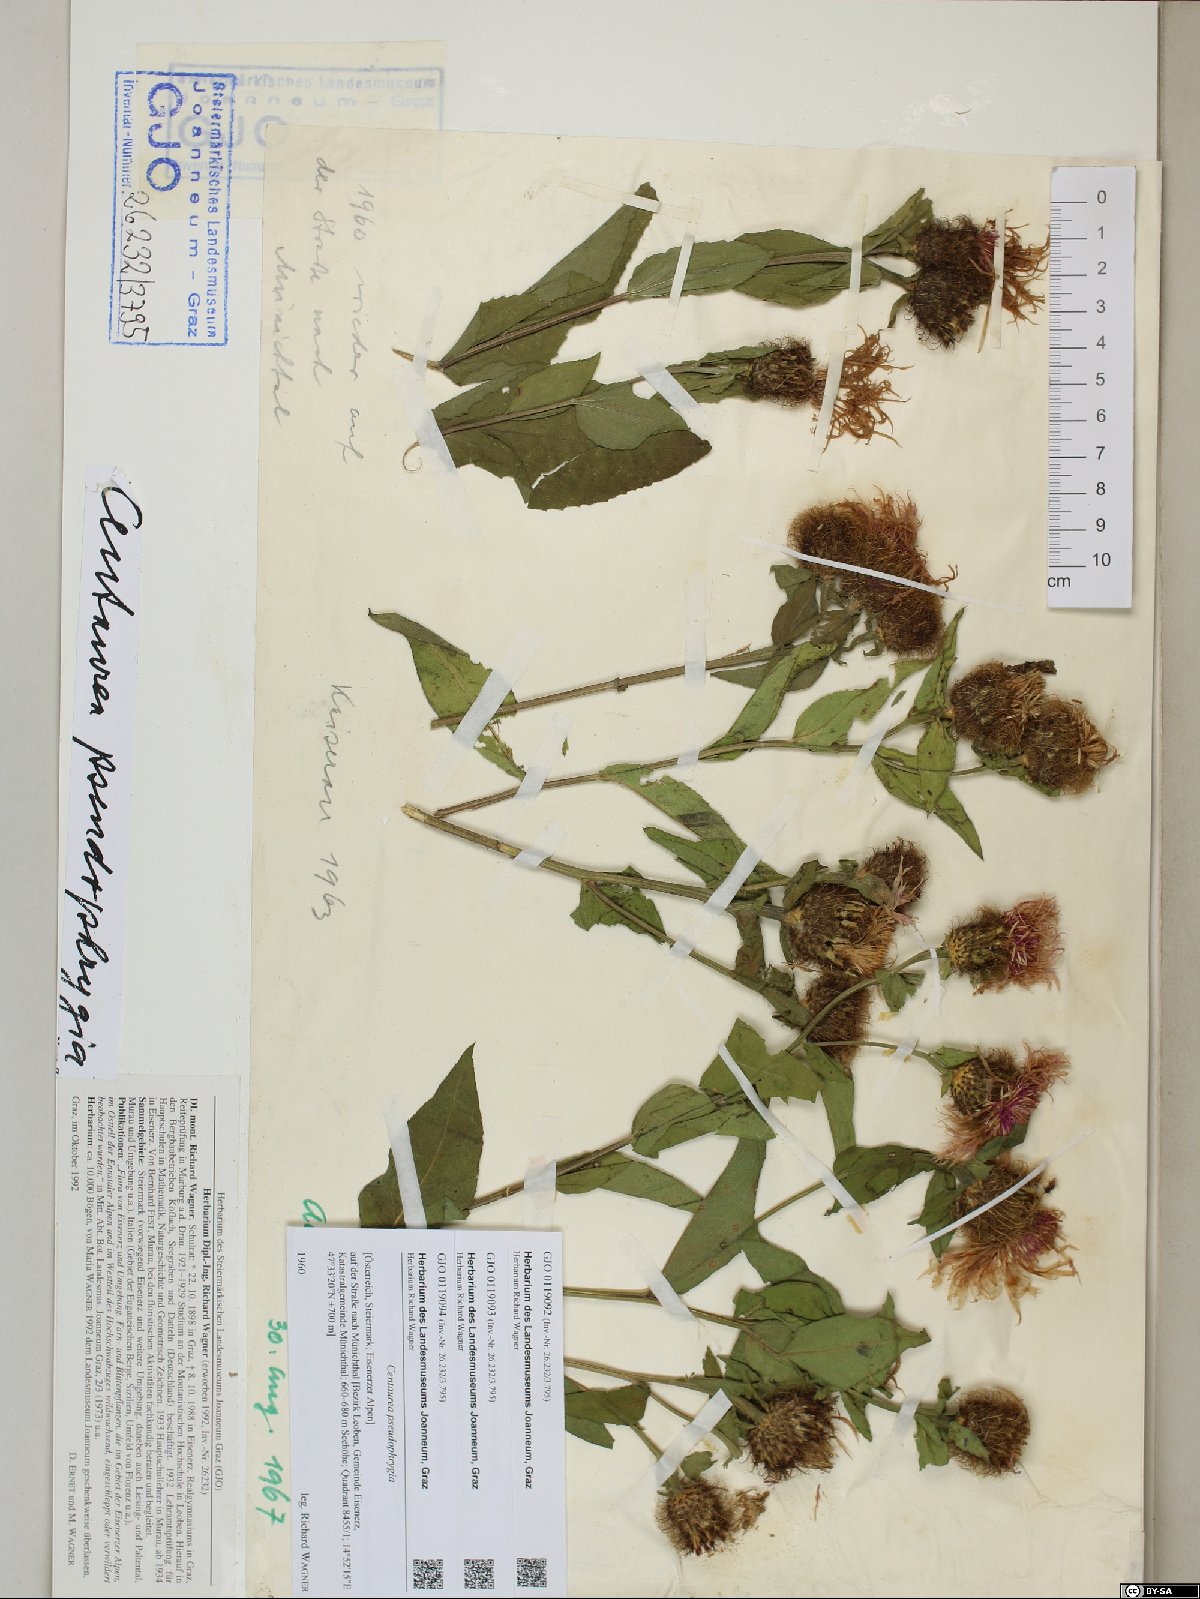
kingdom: Plantae
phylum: Tracheophyta
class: Magnoliopsida
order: Asterales
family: Asteraceae
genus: Centaurea
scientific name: Centaurea pseudophrygia
